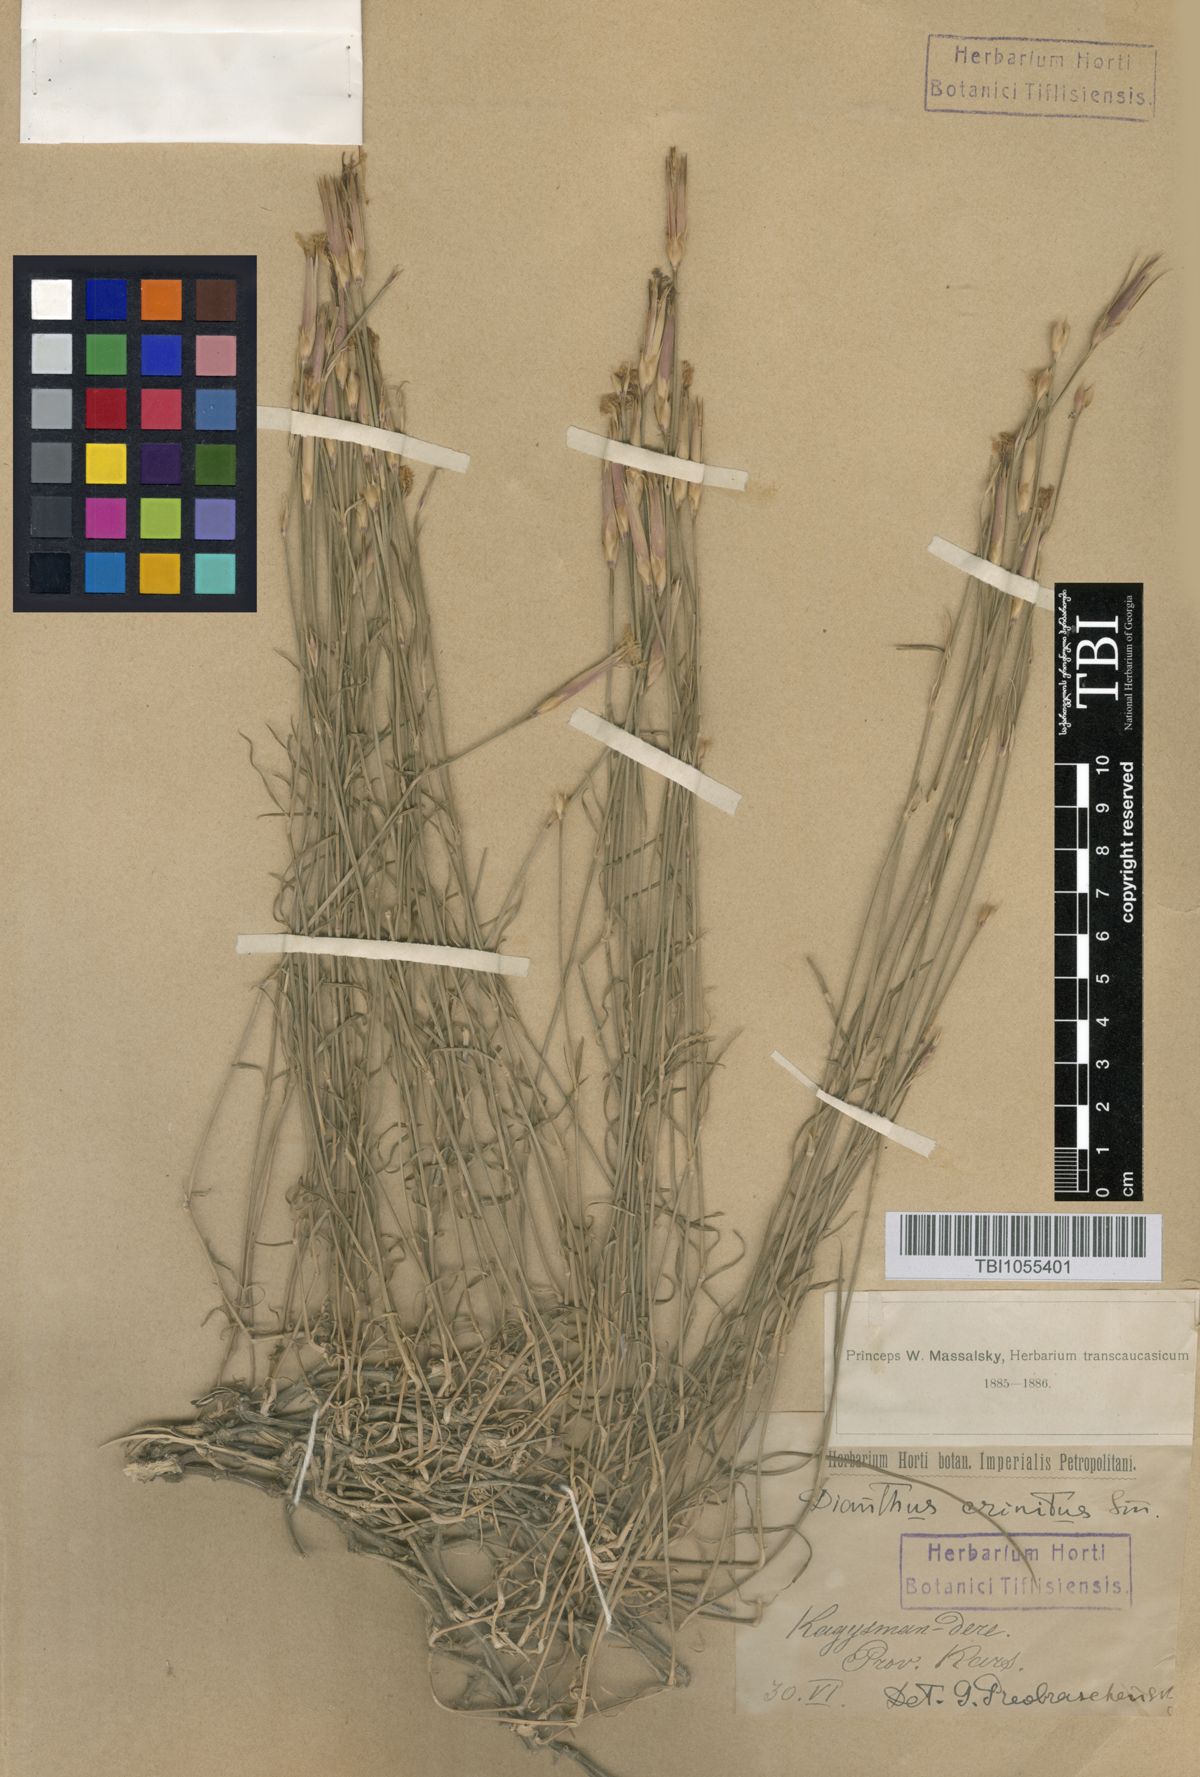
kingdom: Plantae
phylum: Tracheophyta
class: Magnoliopsida
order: Caryophyllales
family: Caryophyllaceae
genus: Dianthus
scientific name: Dianthus crinitus
